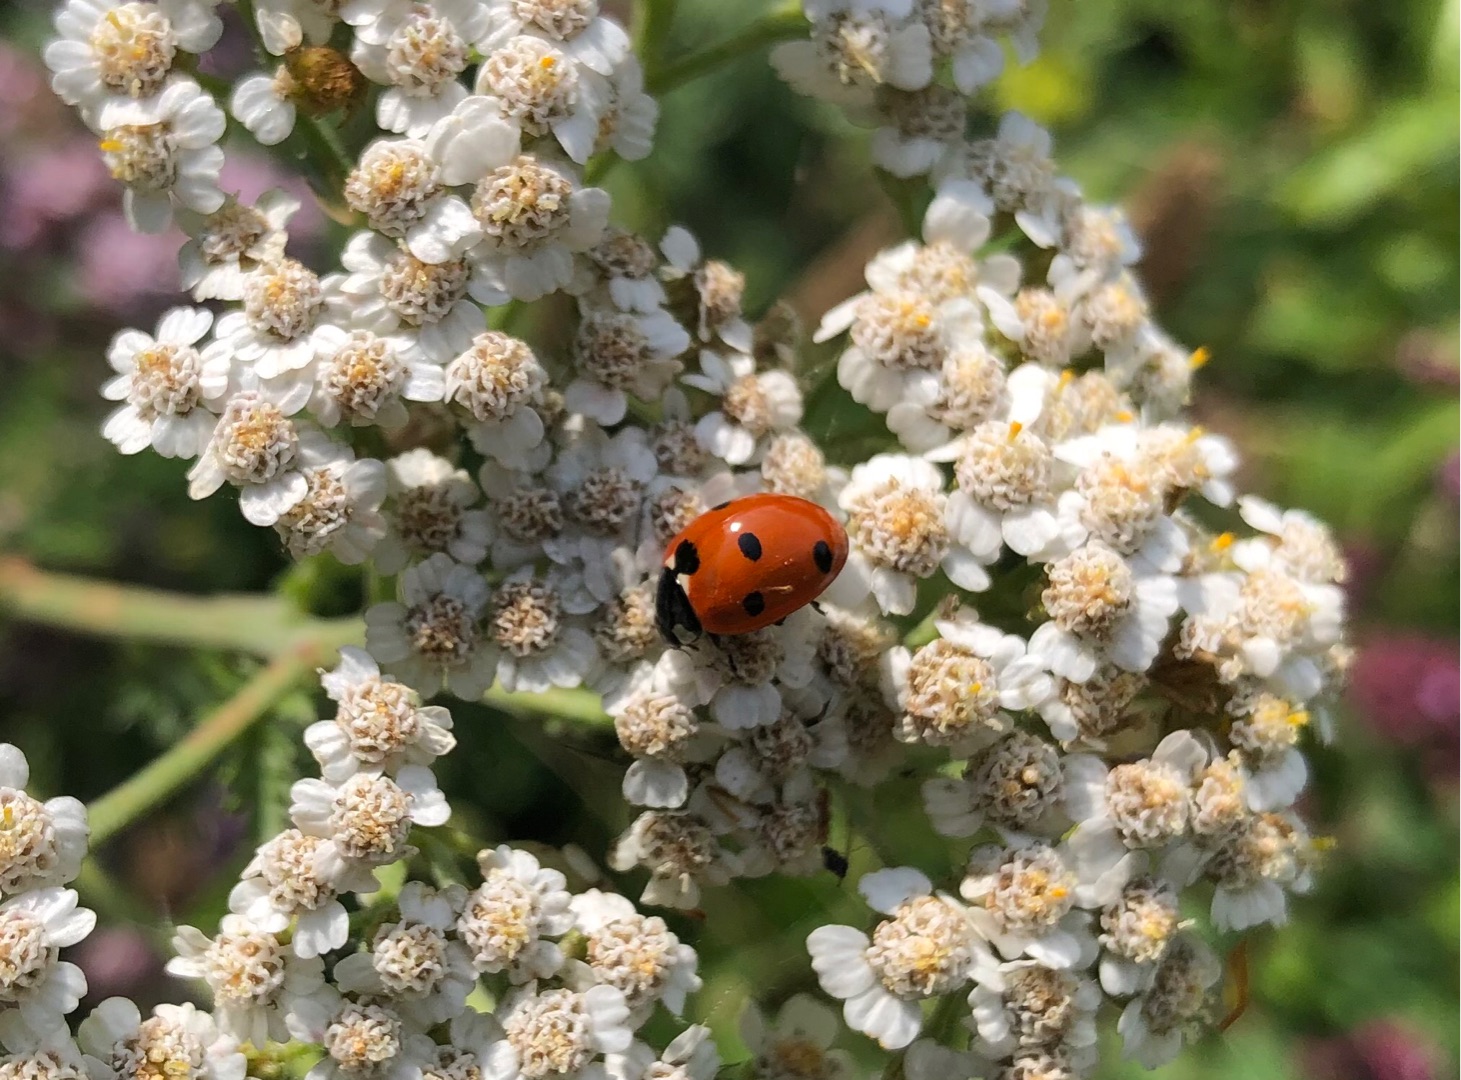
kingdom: Animalia
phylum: Arthropoda
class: Insecta
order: Coleoptera
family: Coccinellidae
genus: Coccinella
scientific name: Coccinella septempunctata
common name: Syvplettet mariehøne
